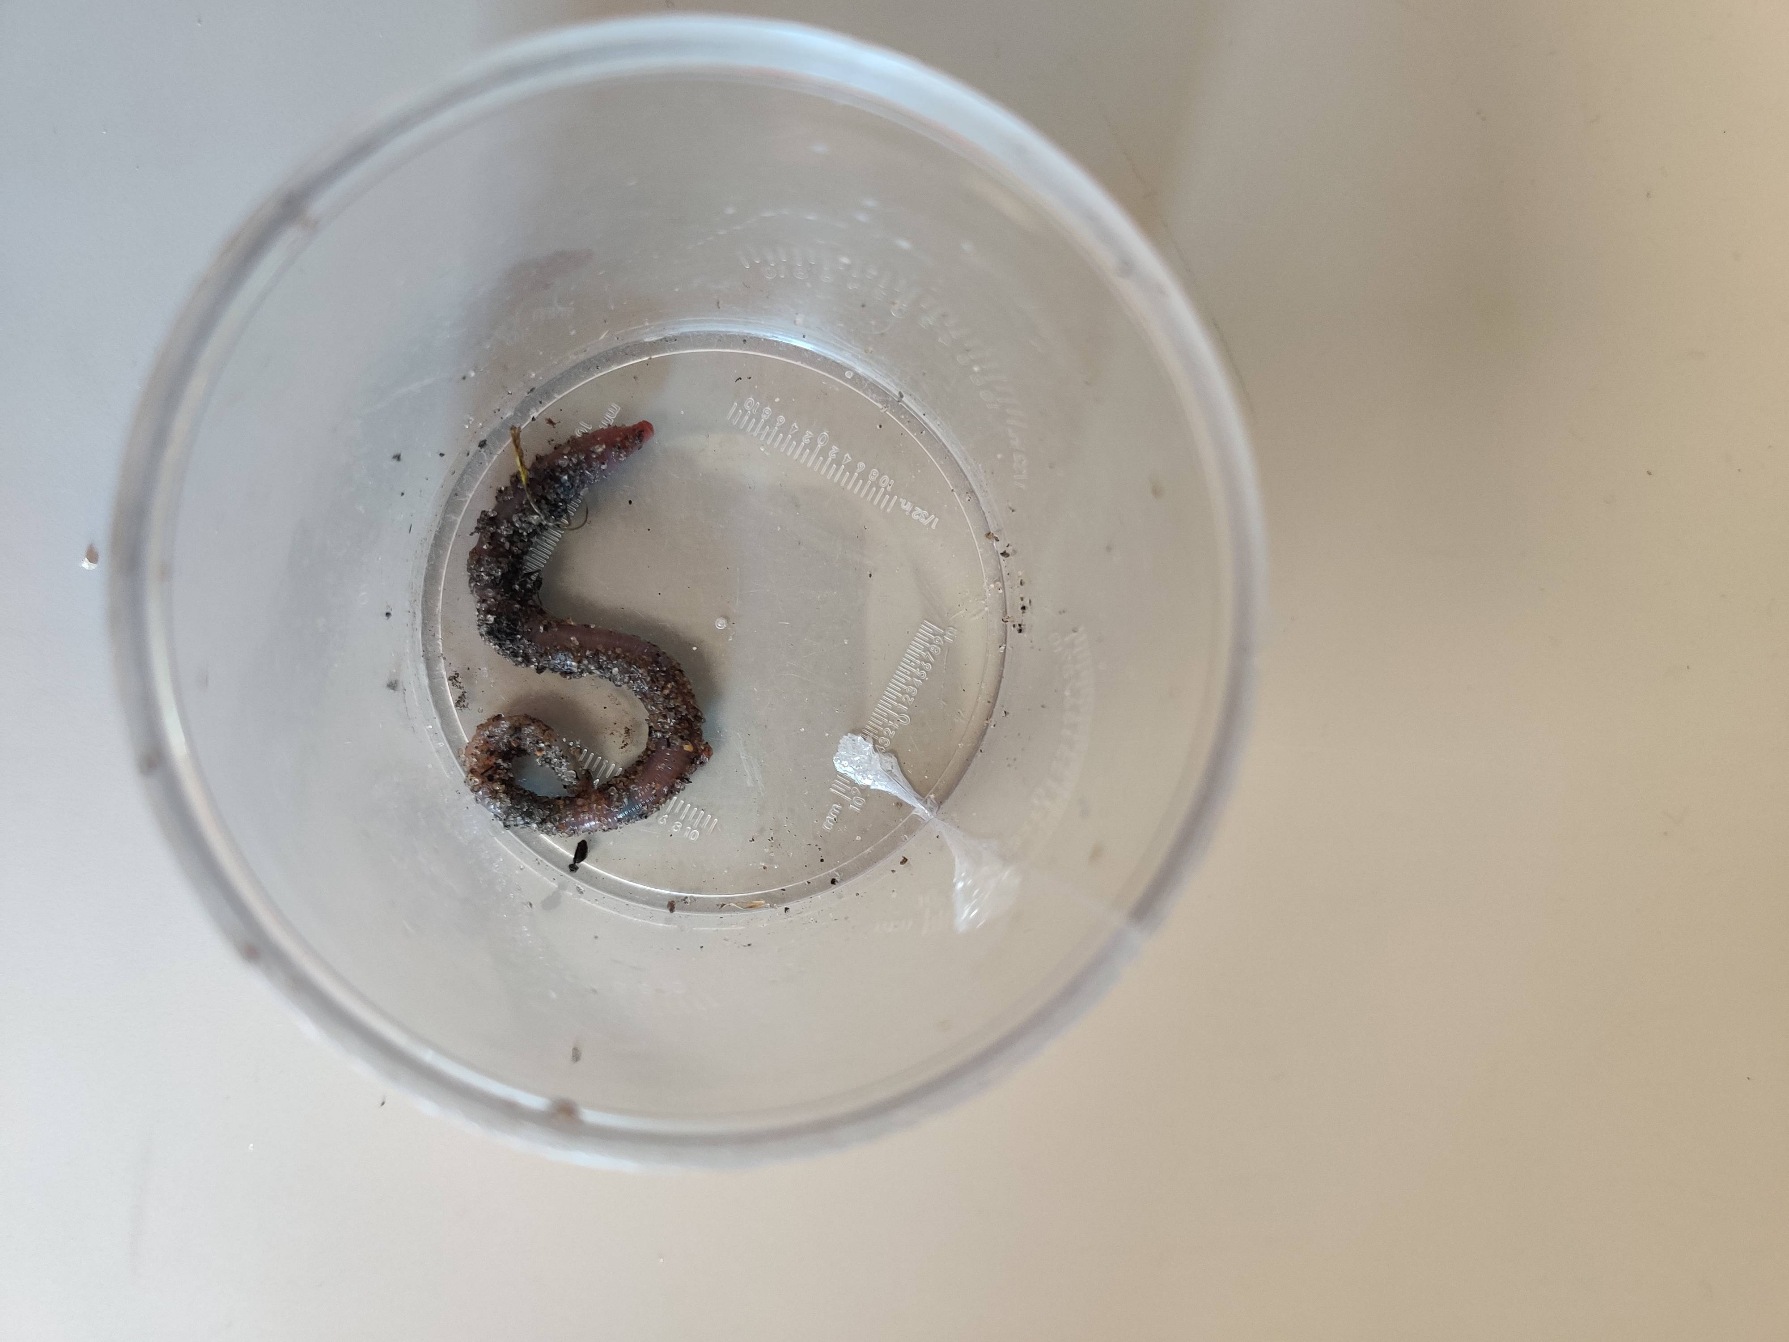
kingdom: Animalia
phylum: Annelida
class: Clitellata
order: Crassiclitellata
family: Lumbricidae
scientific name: Lumbricidae
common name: Regnorme
